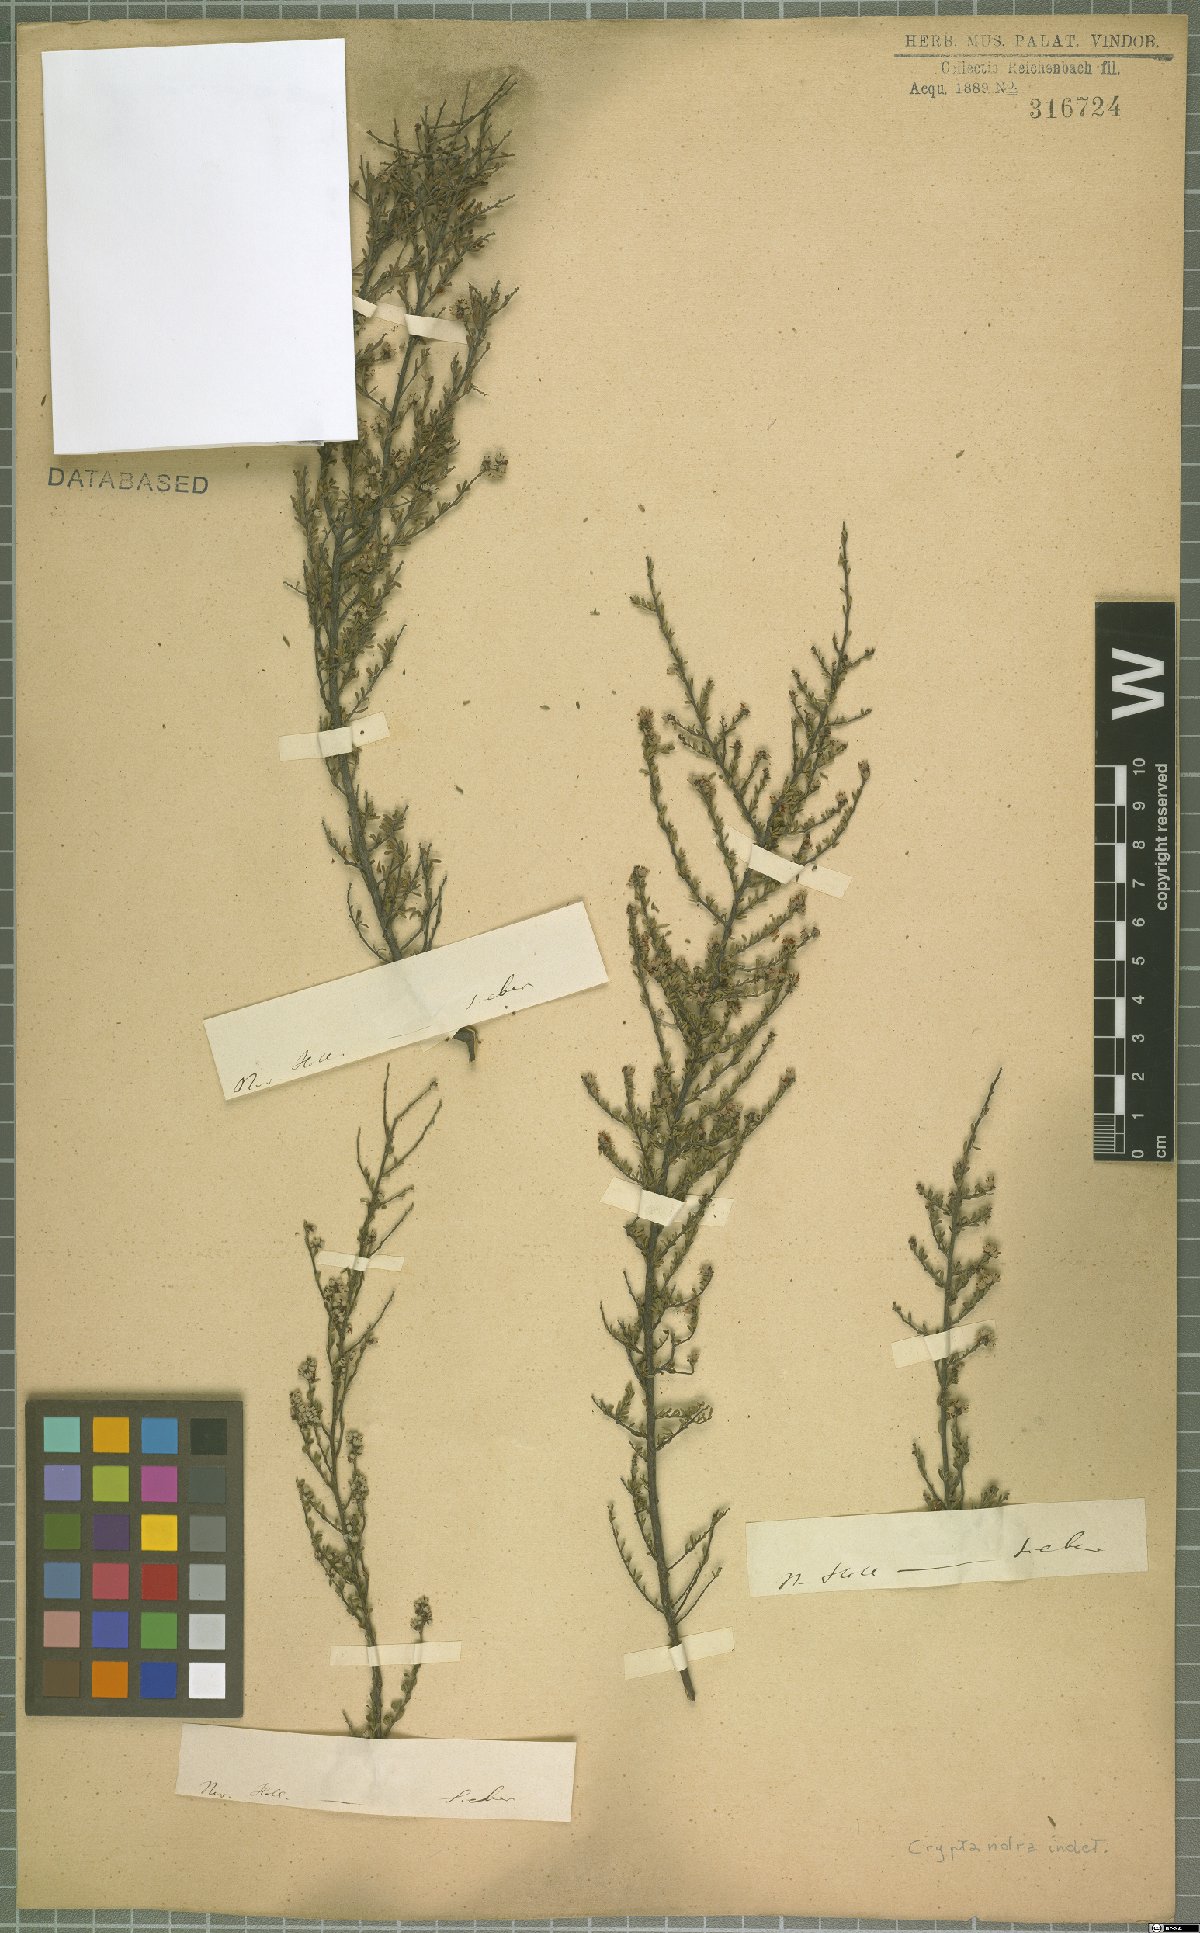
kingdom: Plantae
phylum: Tracheophyta
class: Magnoliopsida
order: Rosales
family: Rhamnaceae
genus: Cryptandra
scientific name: Cryptandra
